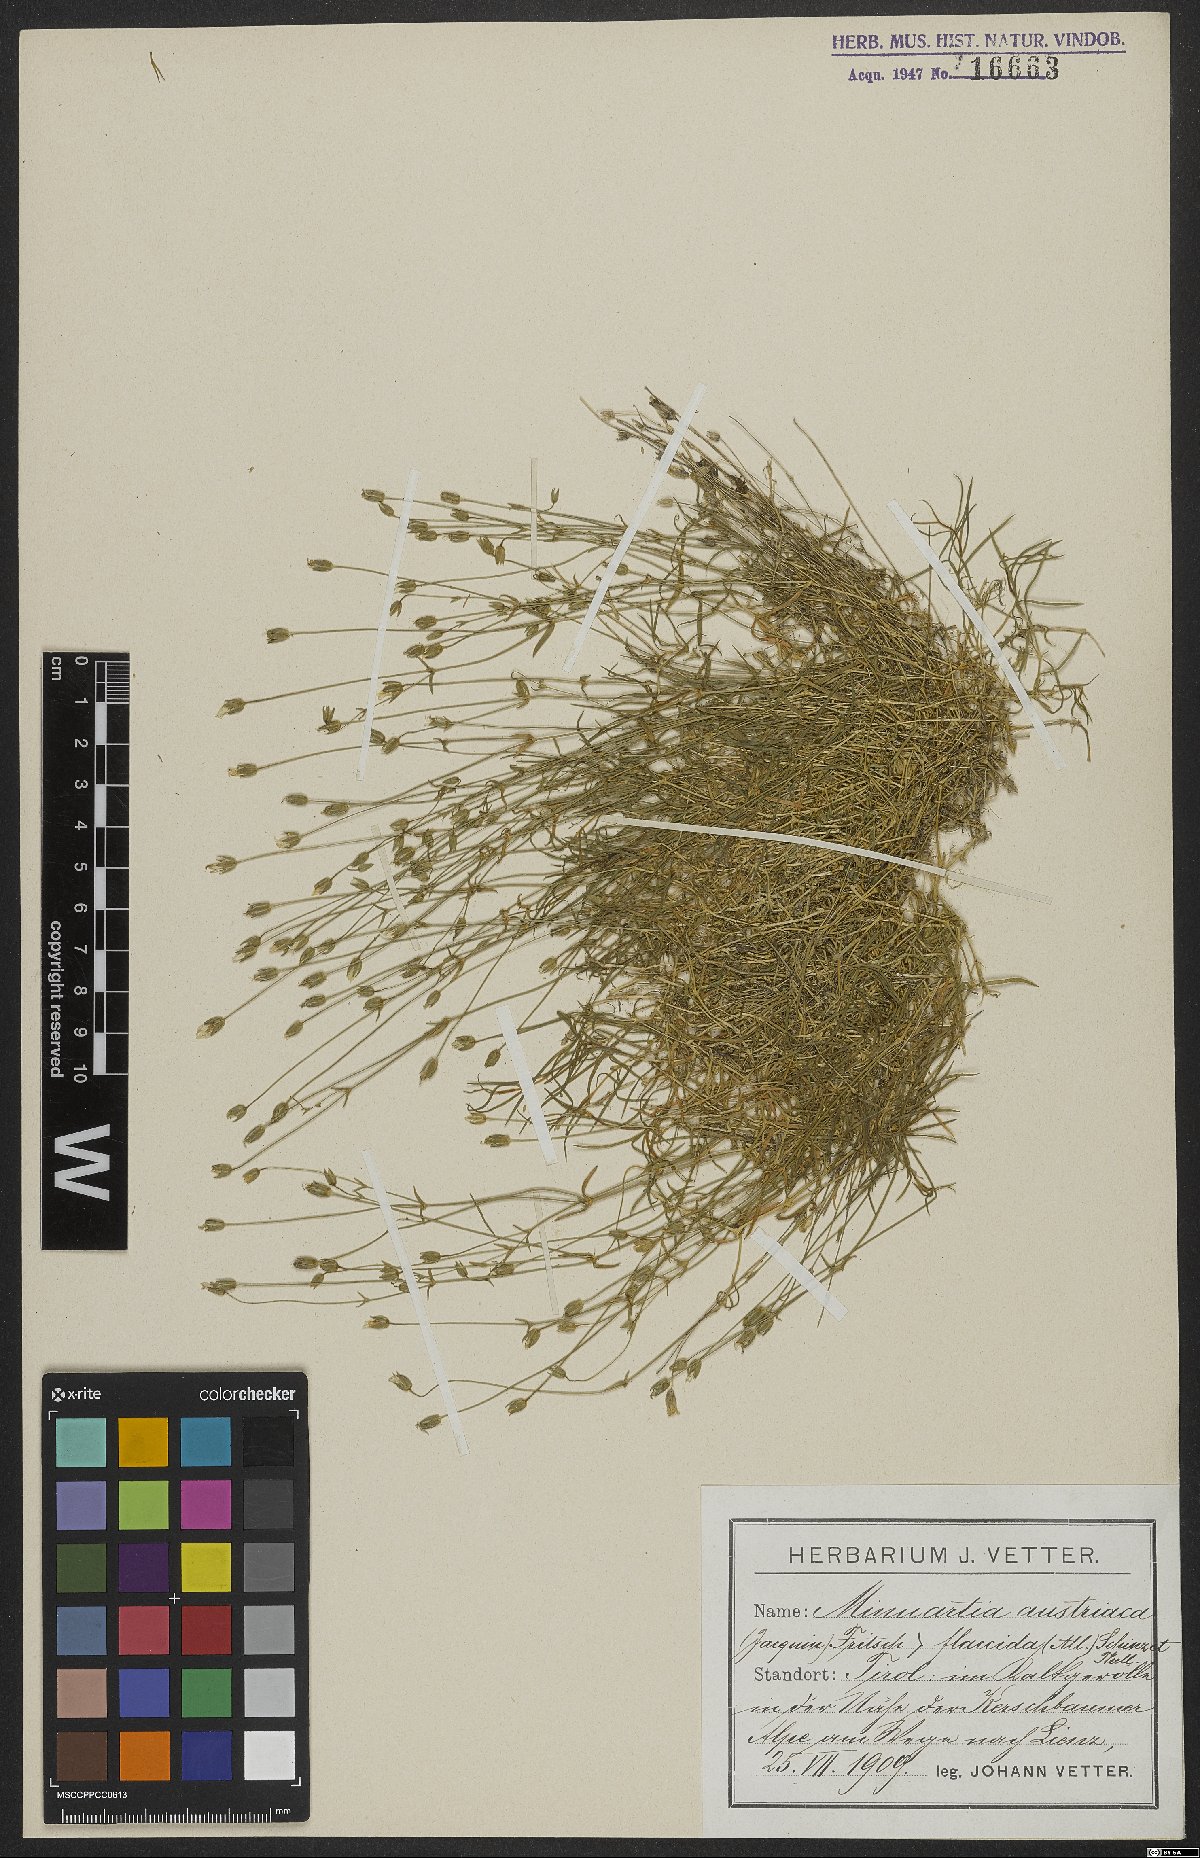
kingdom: Plantae
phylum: Tracheophyta
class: Magnoliopsida
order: Caryophyllales
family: Caryophyllaceae
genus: Sabulina
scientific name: Sabulina austriaca
